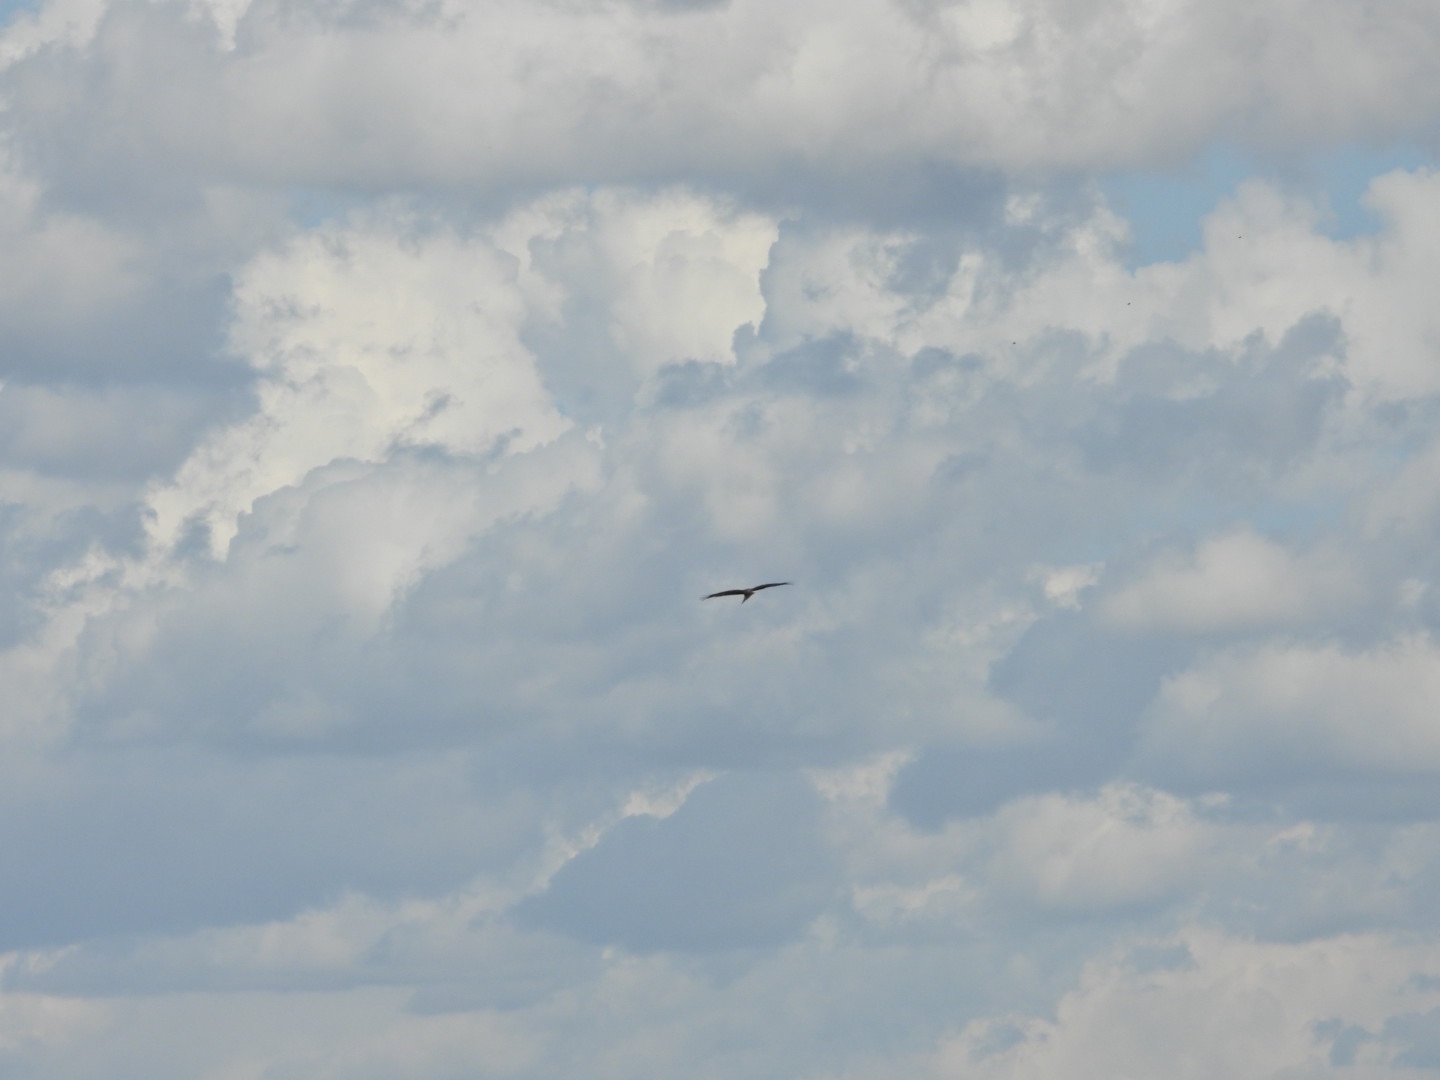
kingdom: Animalia
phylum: Chordata
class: Aves
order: Accipitriformes
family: Accipitridae
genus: Milvus
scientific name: Milvus milvus
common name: Rød glente
